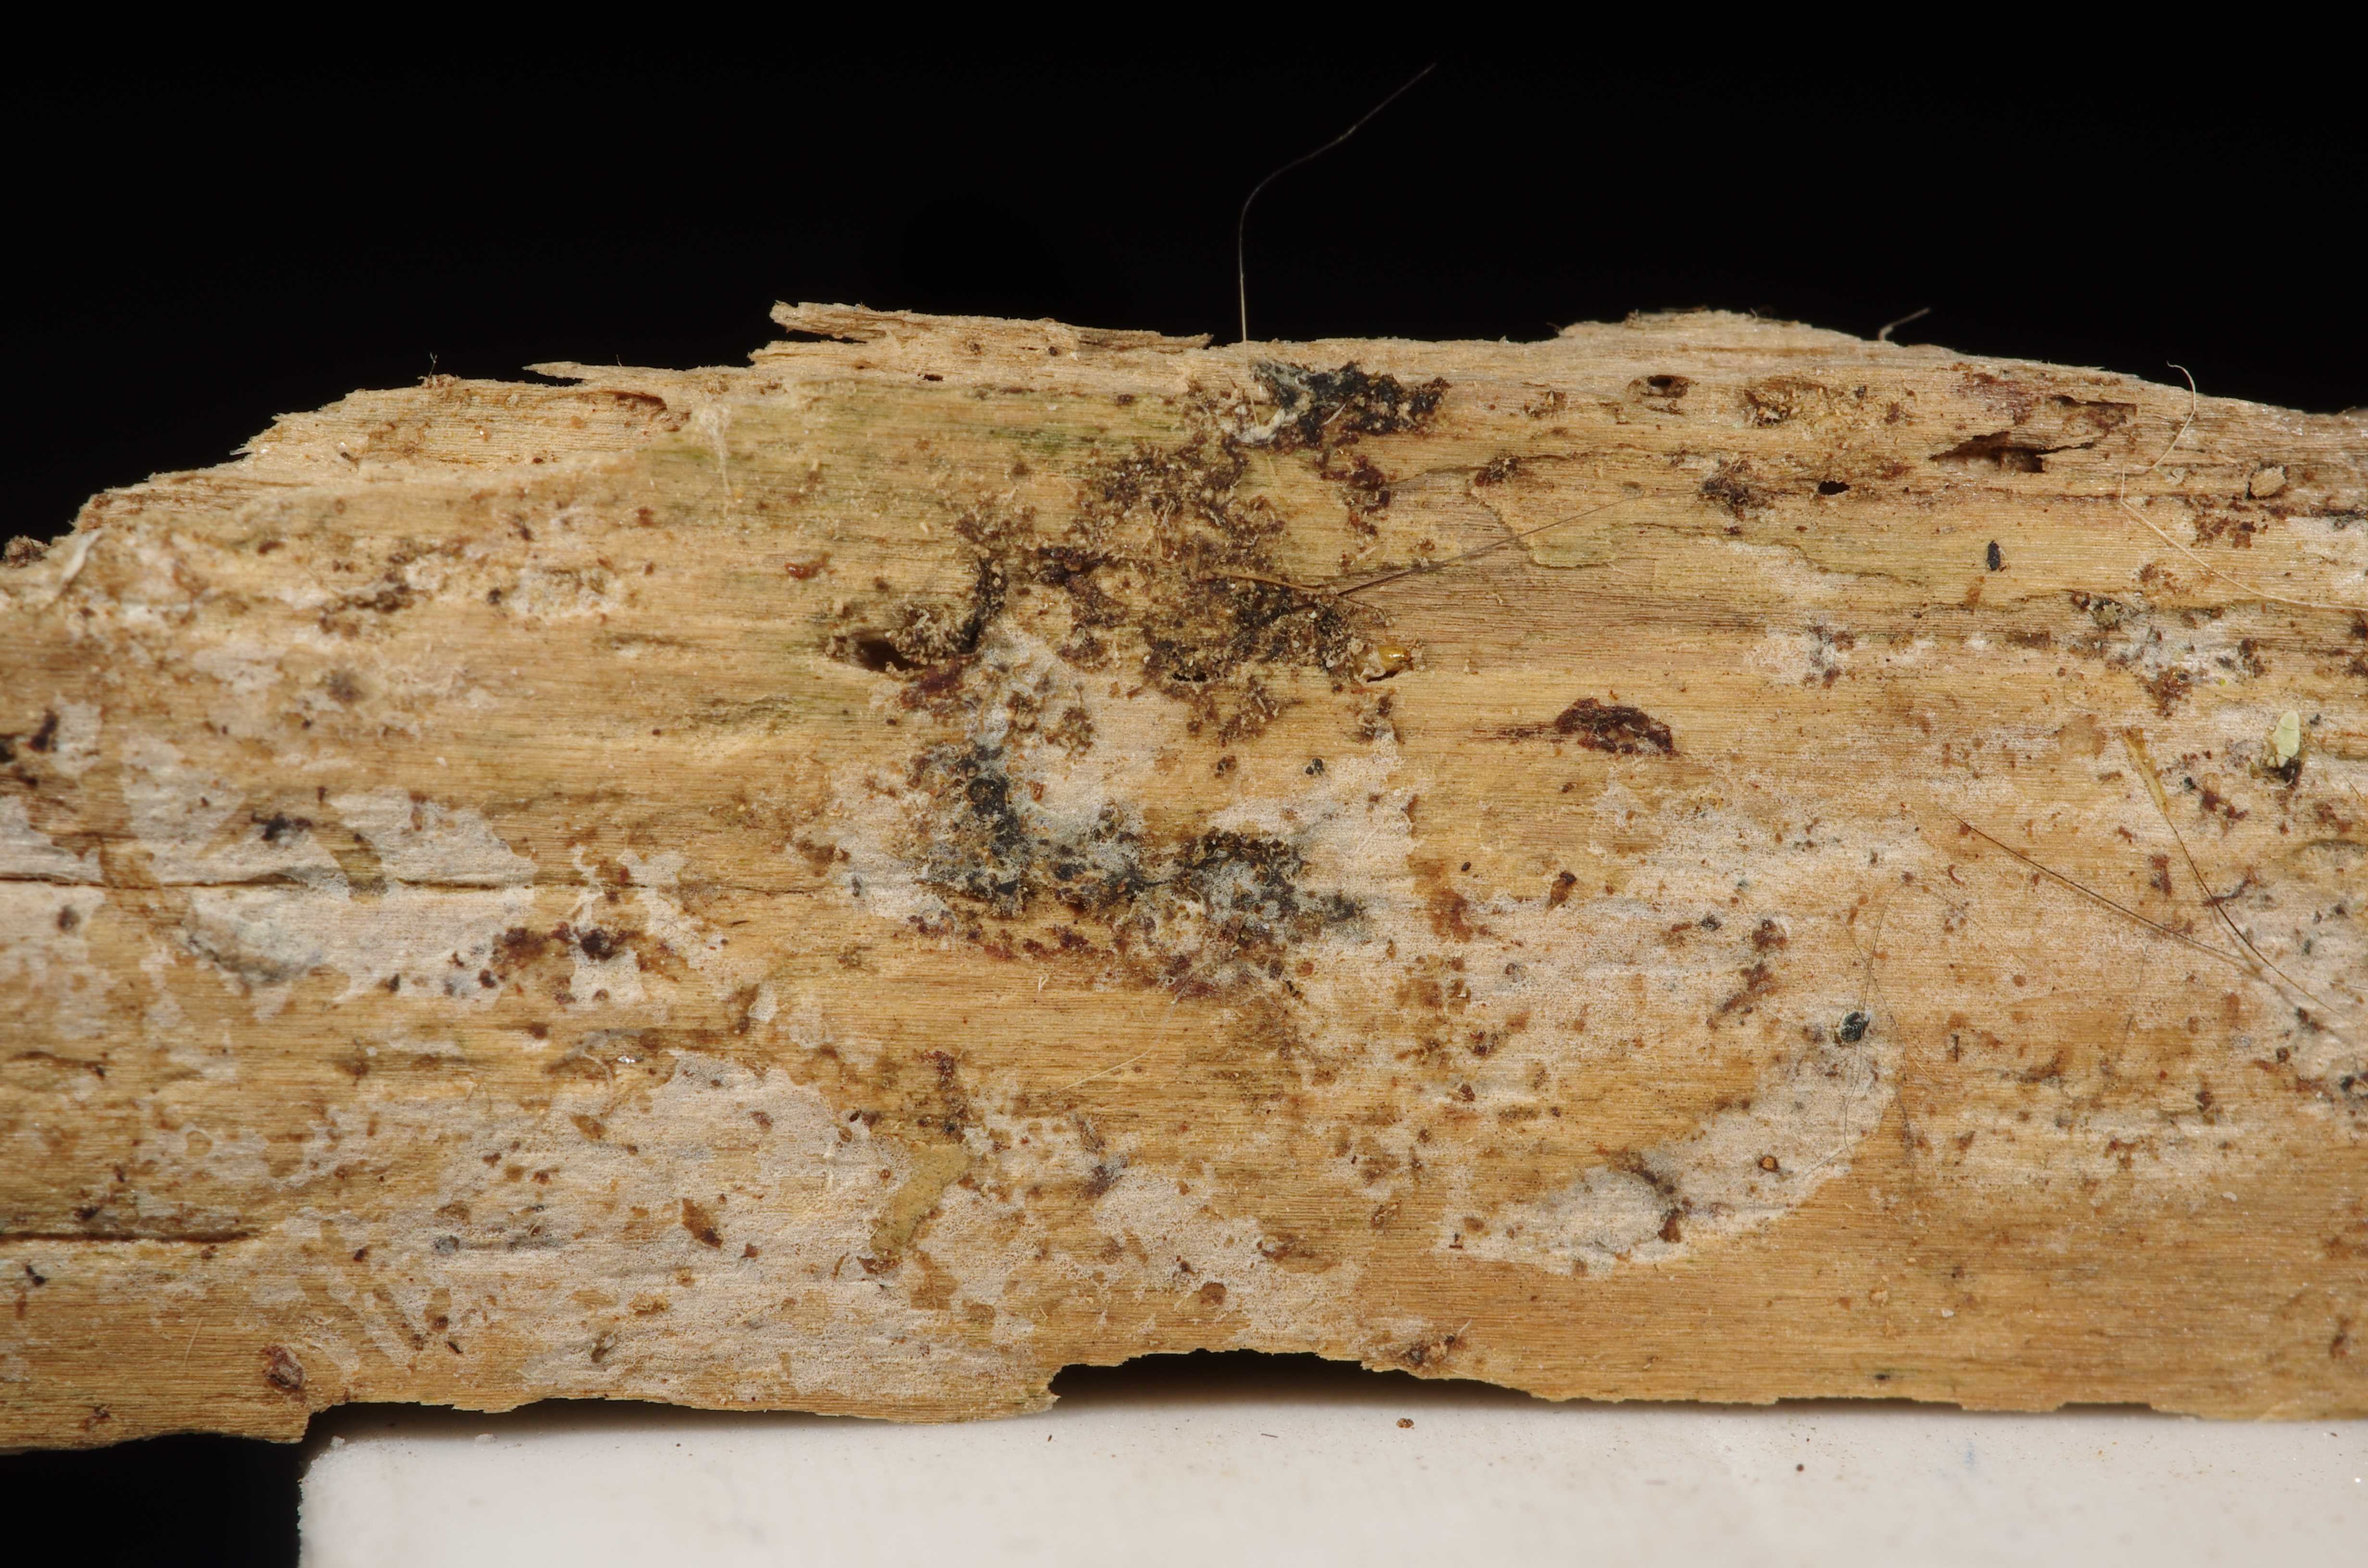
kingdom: Fungi
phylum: Basidiomycota
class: Tremellomycetes
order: Tremellales
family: Exidiaceae
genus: Basidiodendron
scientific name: Basidiodendron
